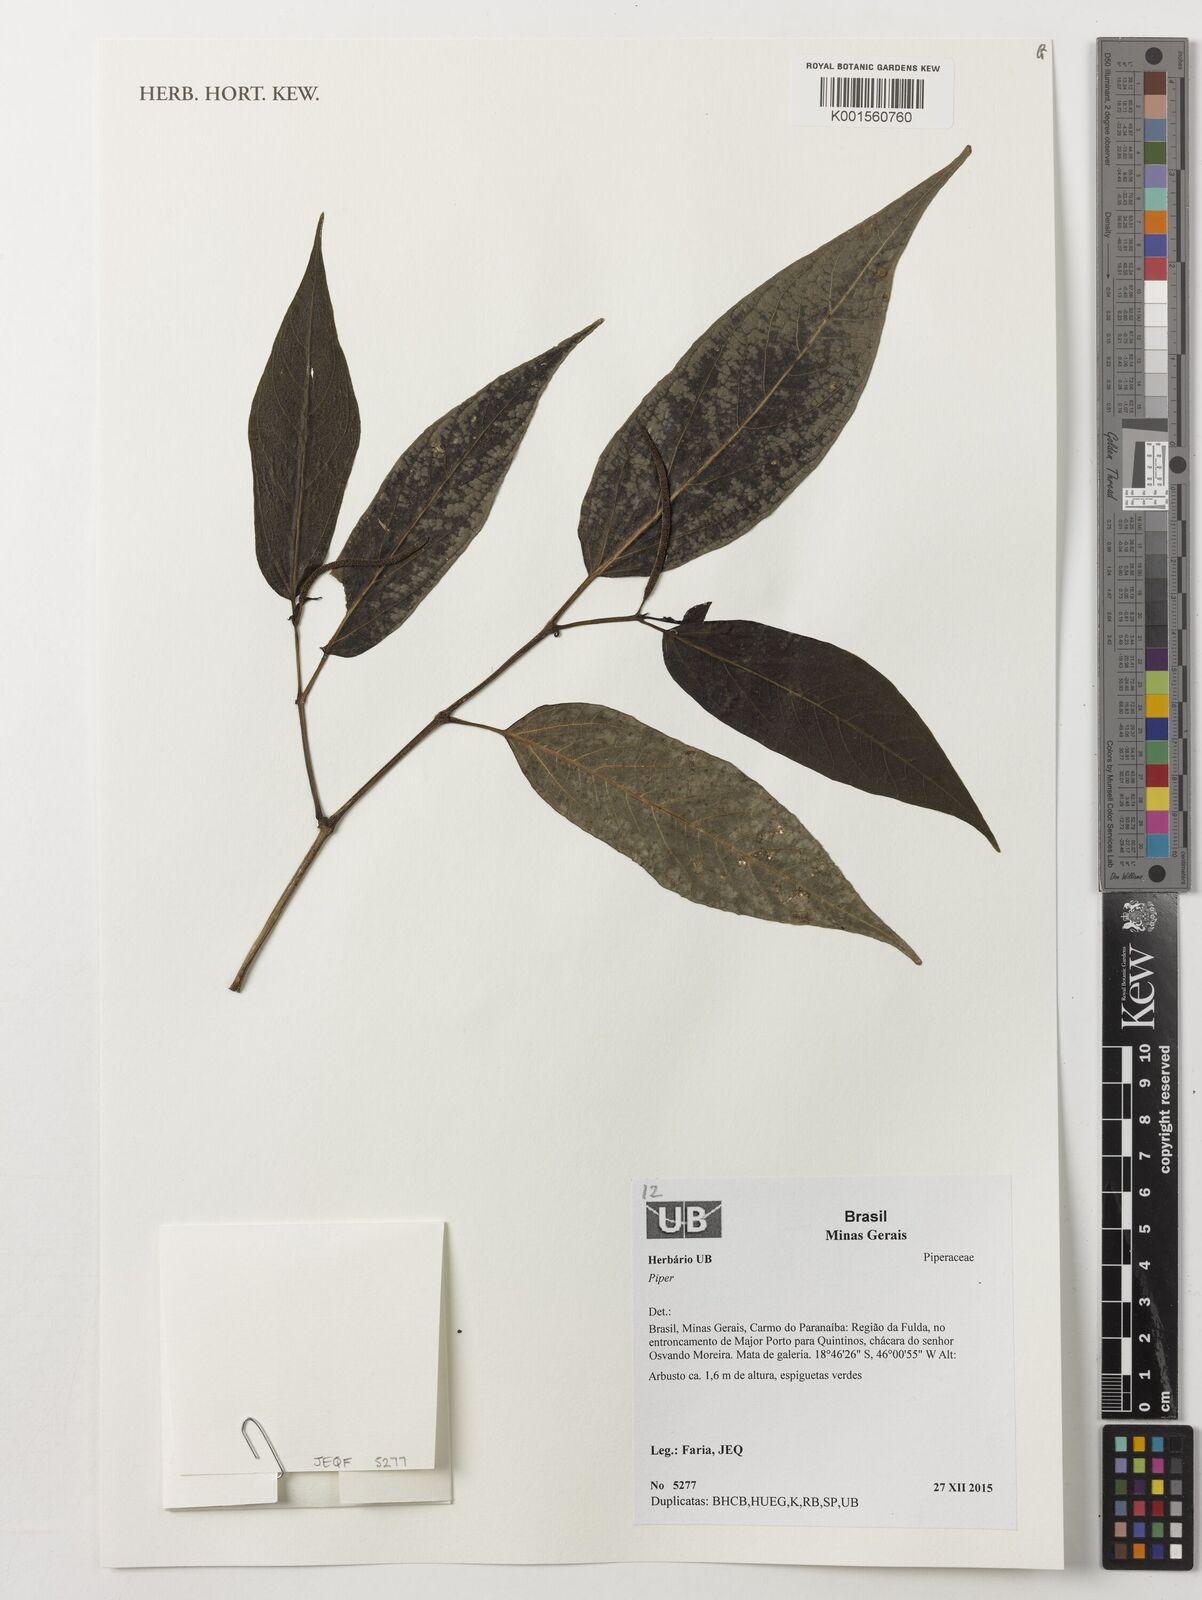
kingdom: Plantae
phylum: Tracheophyta
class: Magnoliopsida
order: Piperales
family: Piperaceae
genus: Piper
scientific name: Piper
